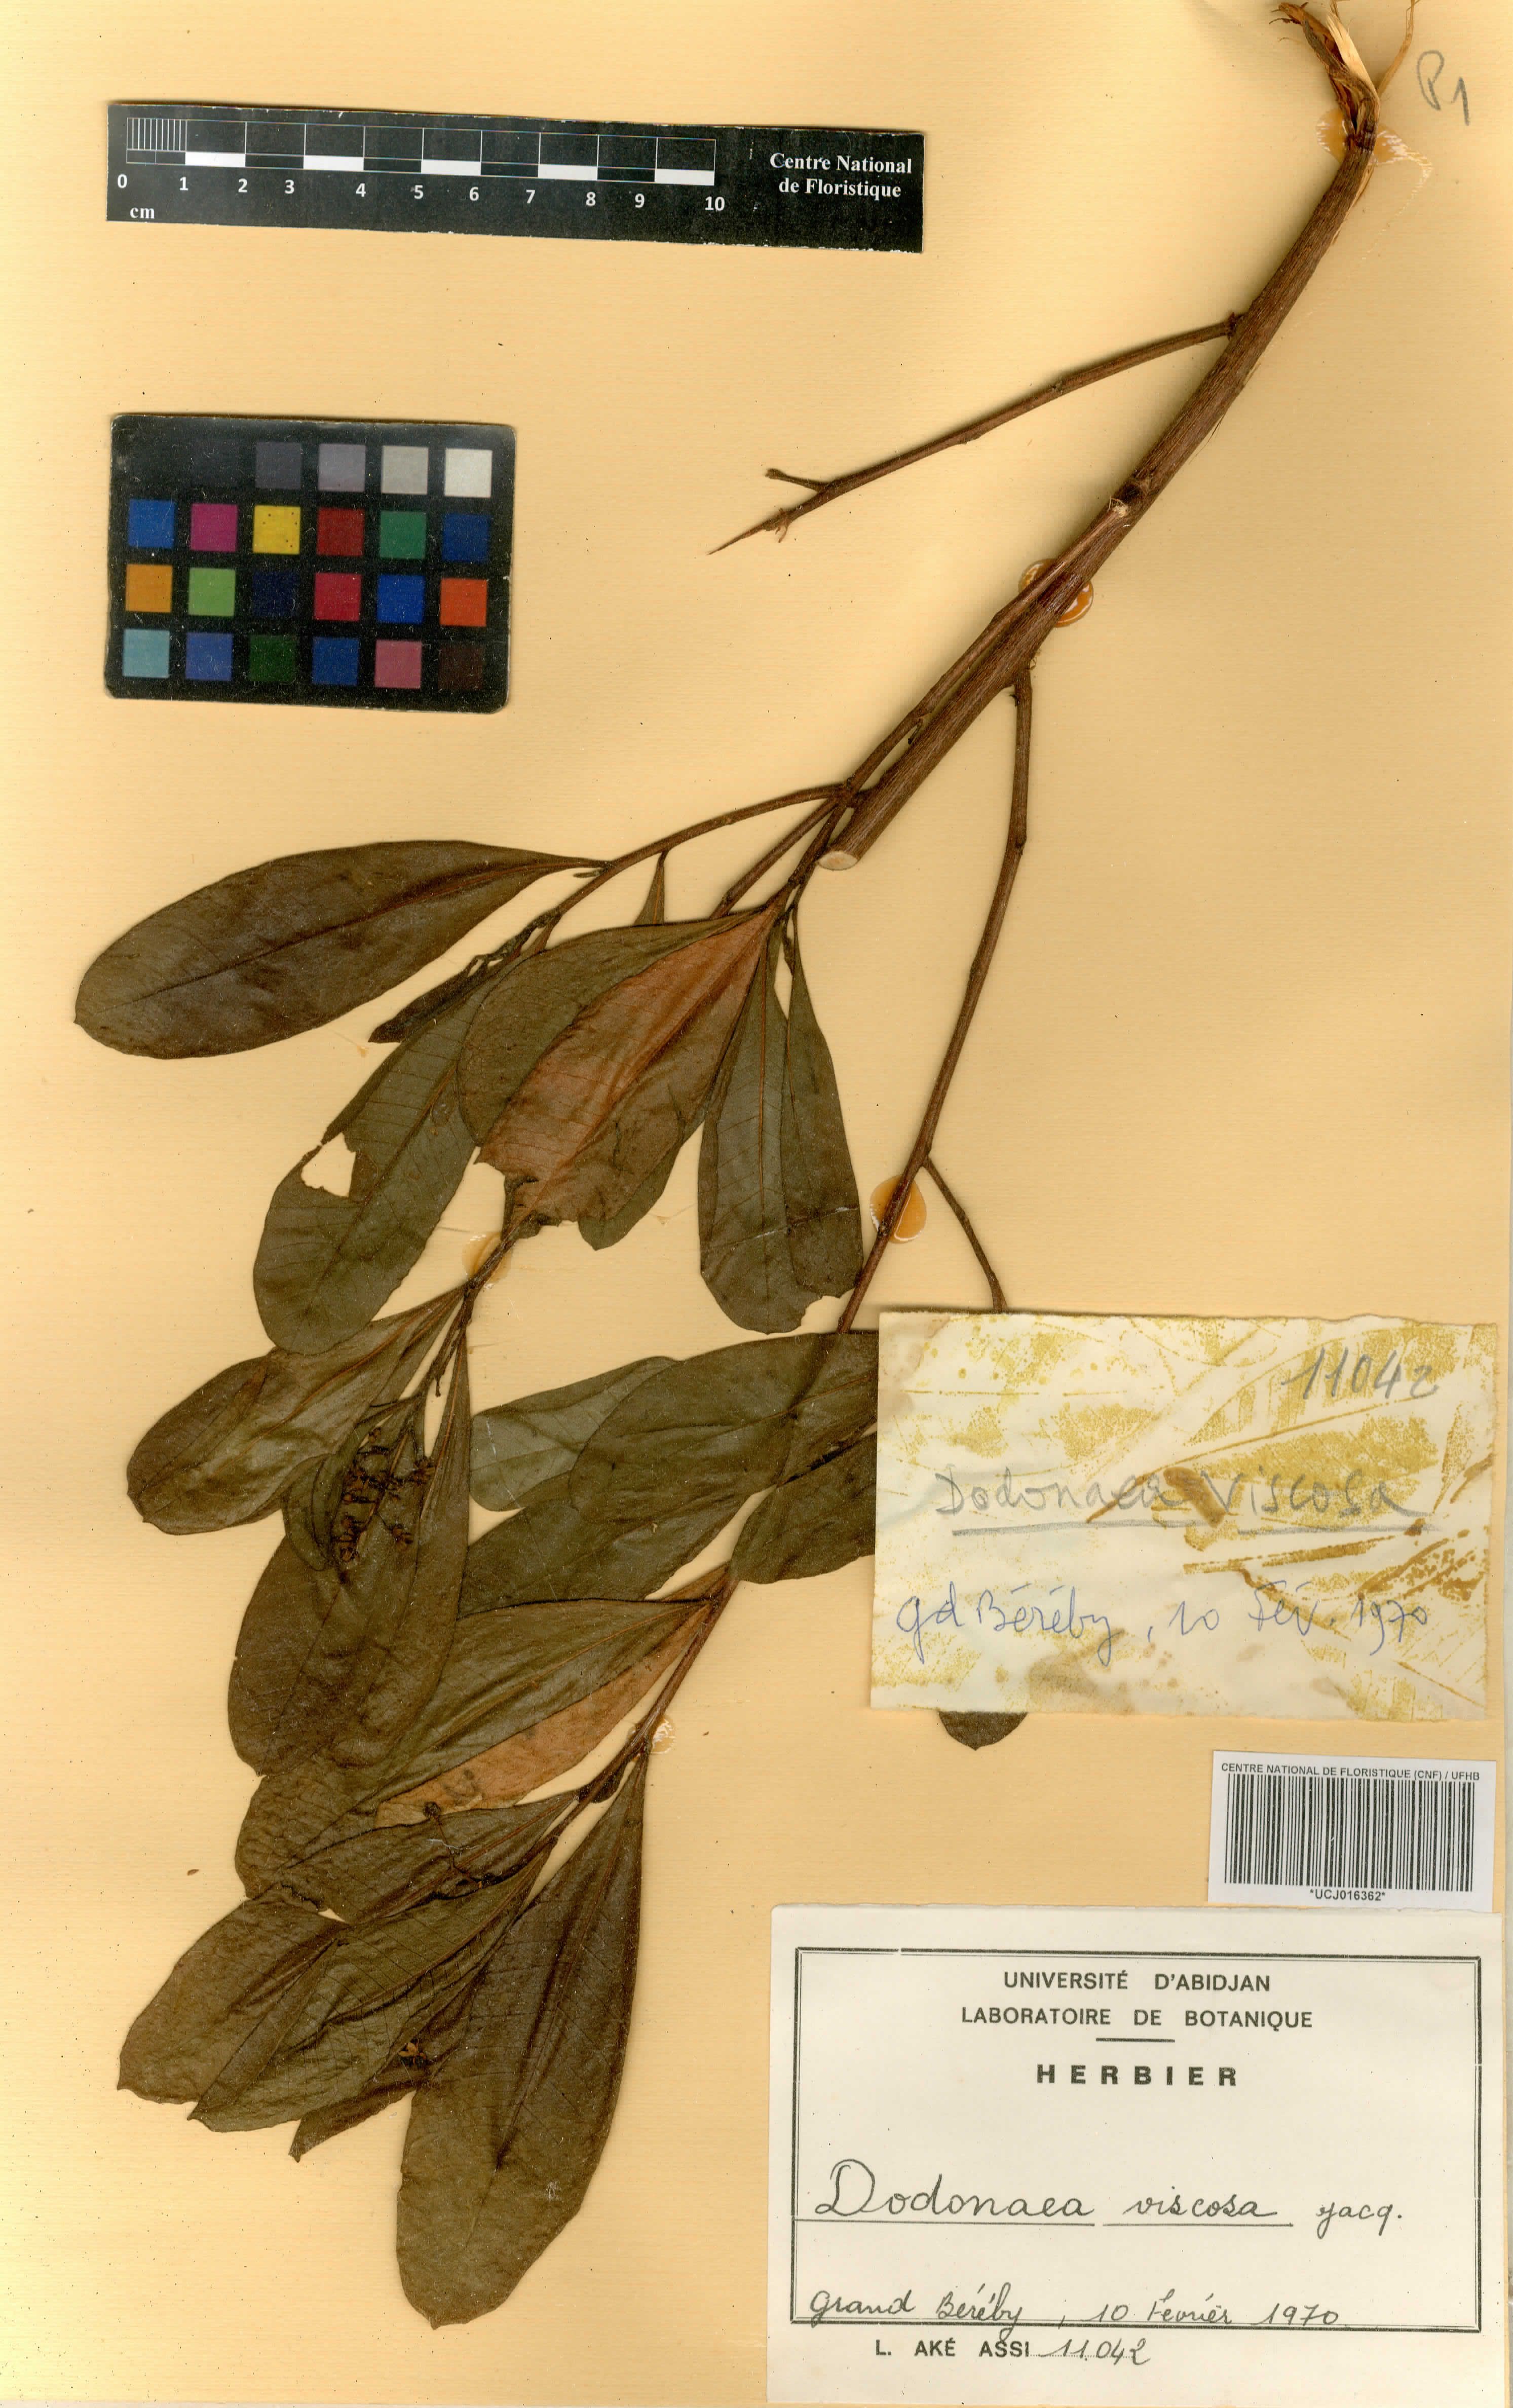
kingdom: Plantae
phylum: Tracheophyta
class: Magnoliopsida
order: Sapindales
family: Sapindaceae
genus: Dodonaea
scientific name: Dodonaea viscosa
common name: Hopbush
